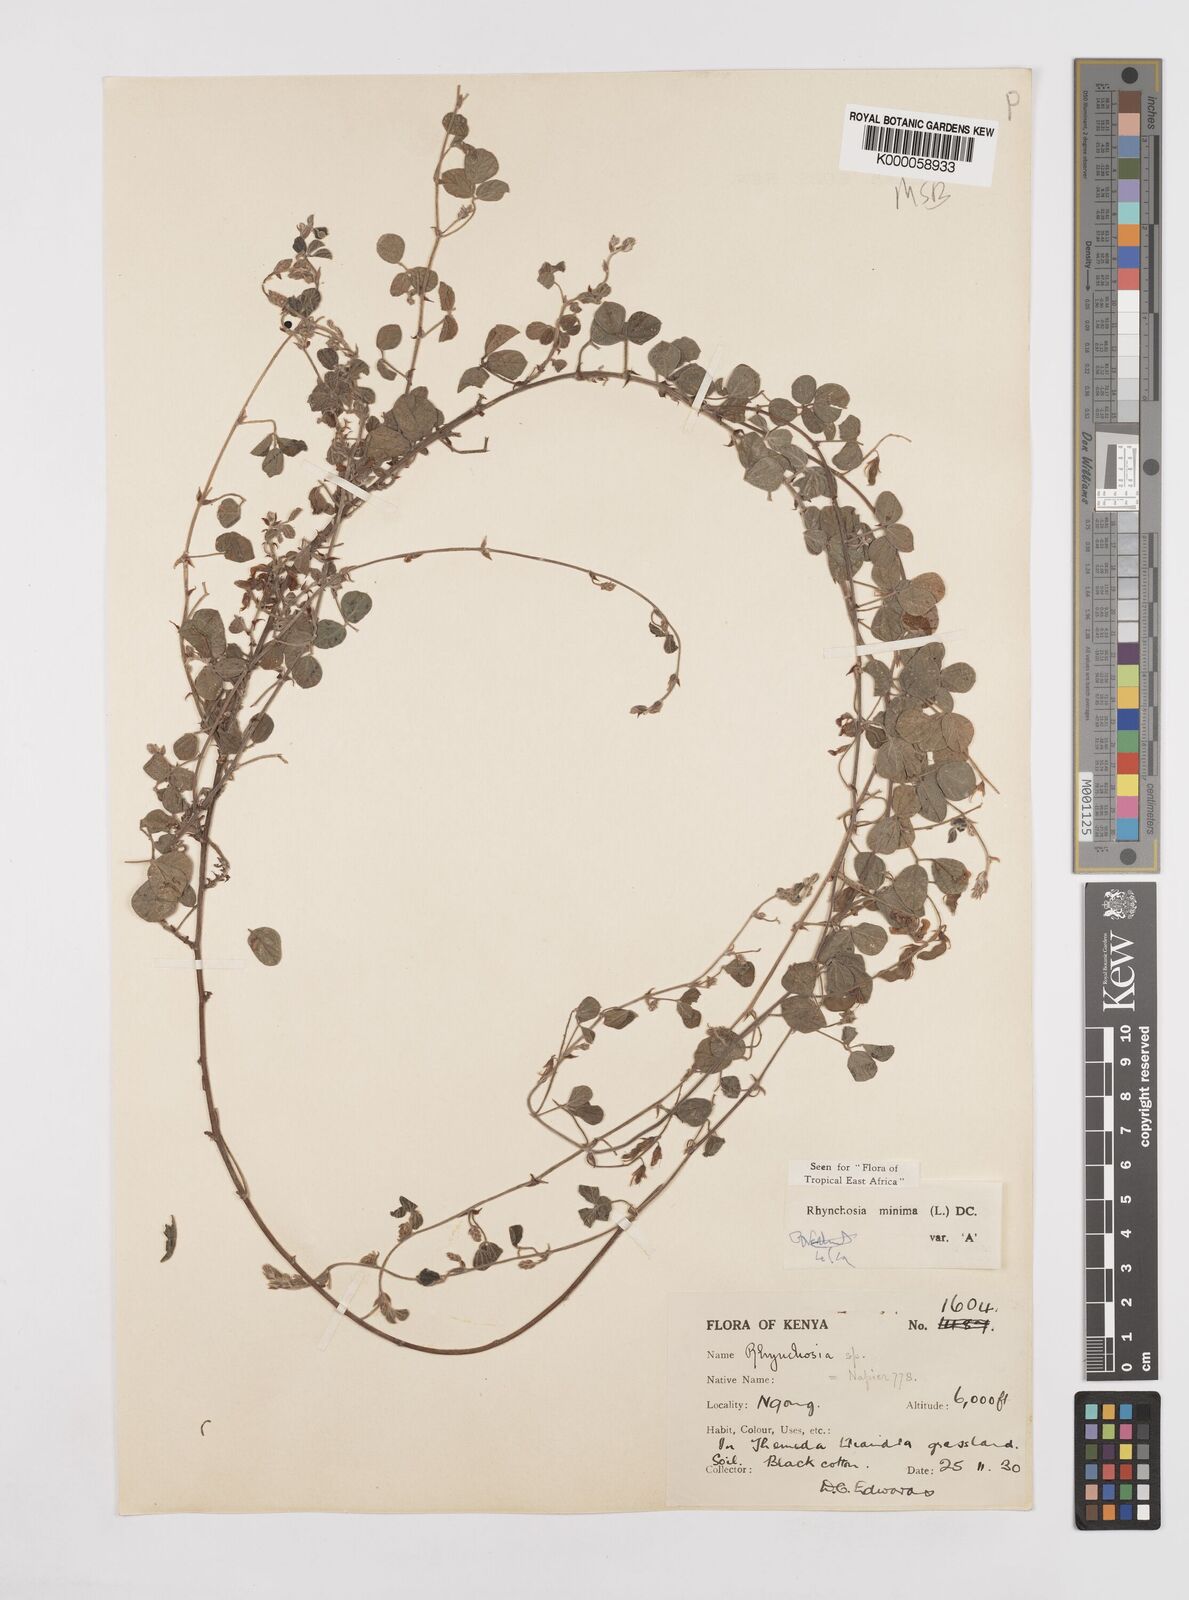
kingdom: Plantae
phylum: Tracheophyta
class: Magnoliopsida
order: Fabales
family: Fabaceae
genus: Rhynchosia
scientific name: Rhynchosia minima
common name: Least snoutbean
